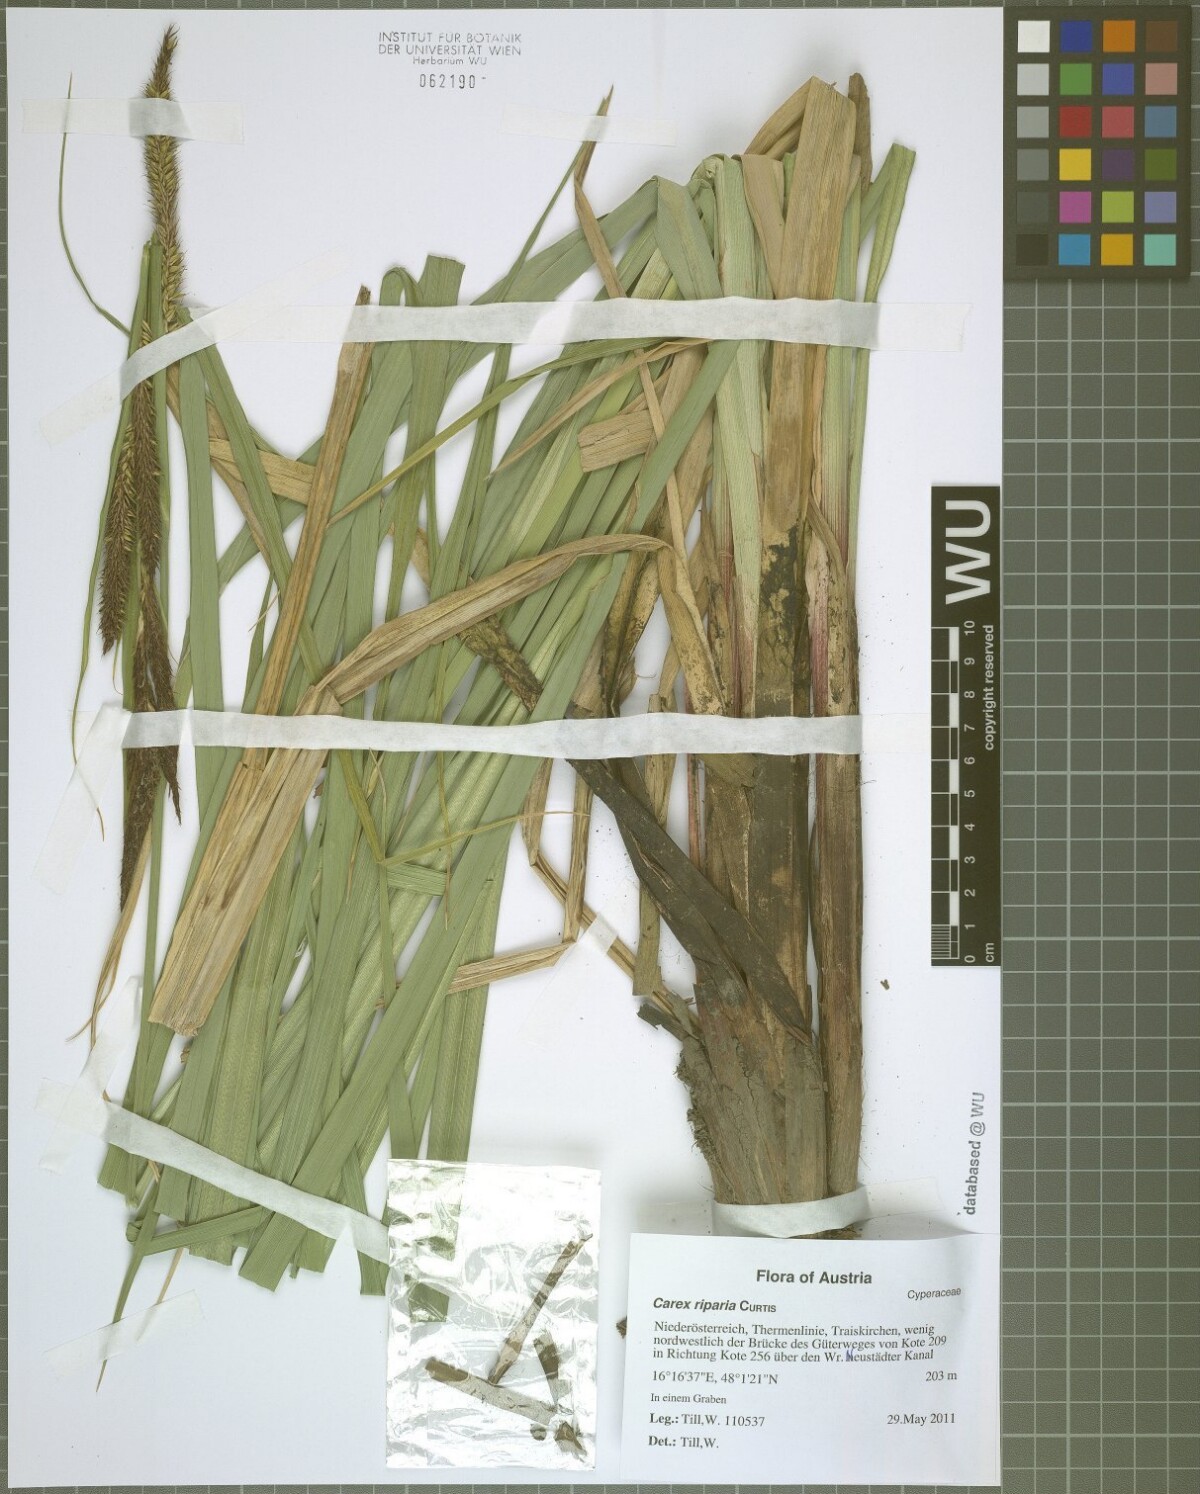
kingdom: Plantae
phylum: Tracheophyta
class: Liliopsida
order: Poales
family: Cyperaceae
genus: Carex
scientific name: Carex riparia
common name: Greater pond-sedge
